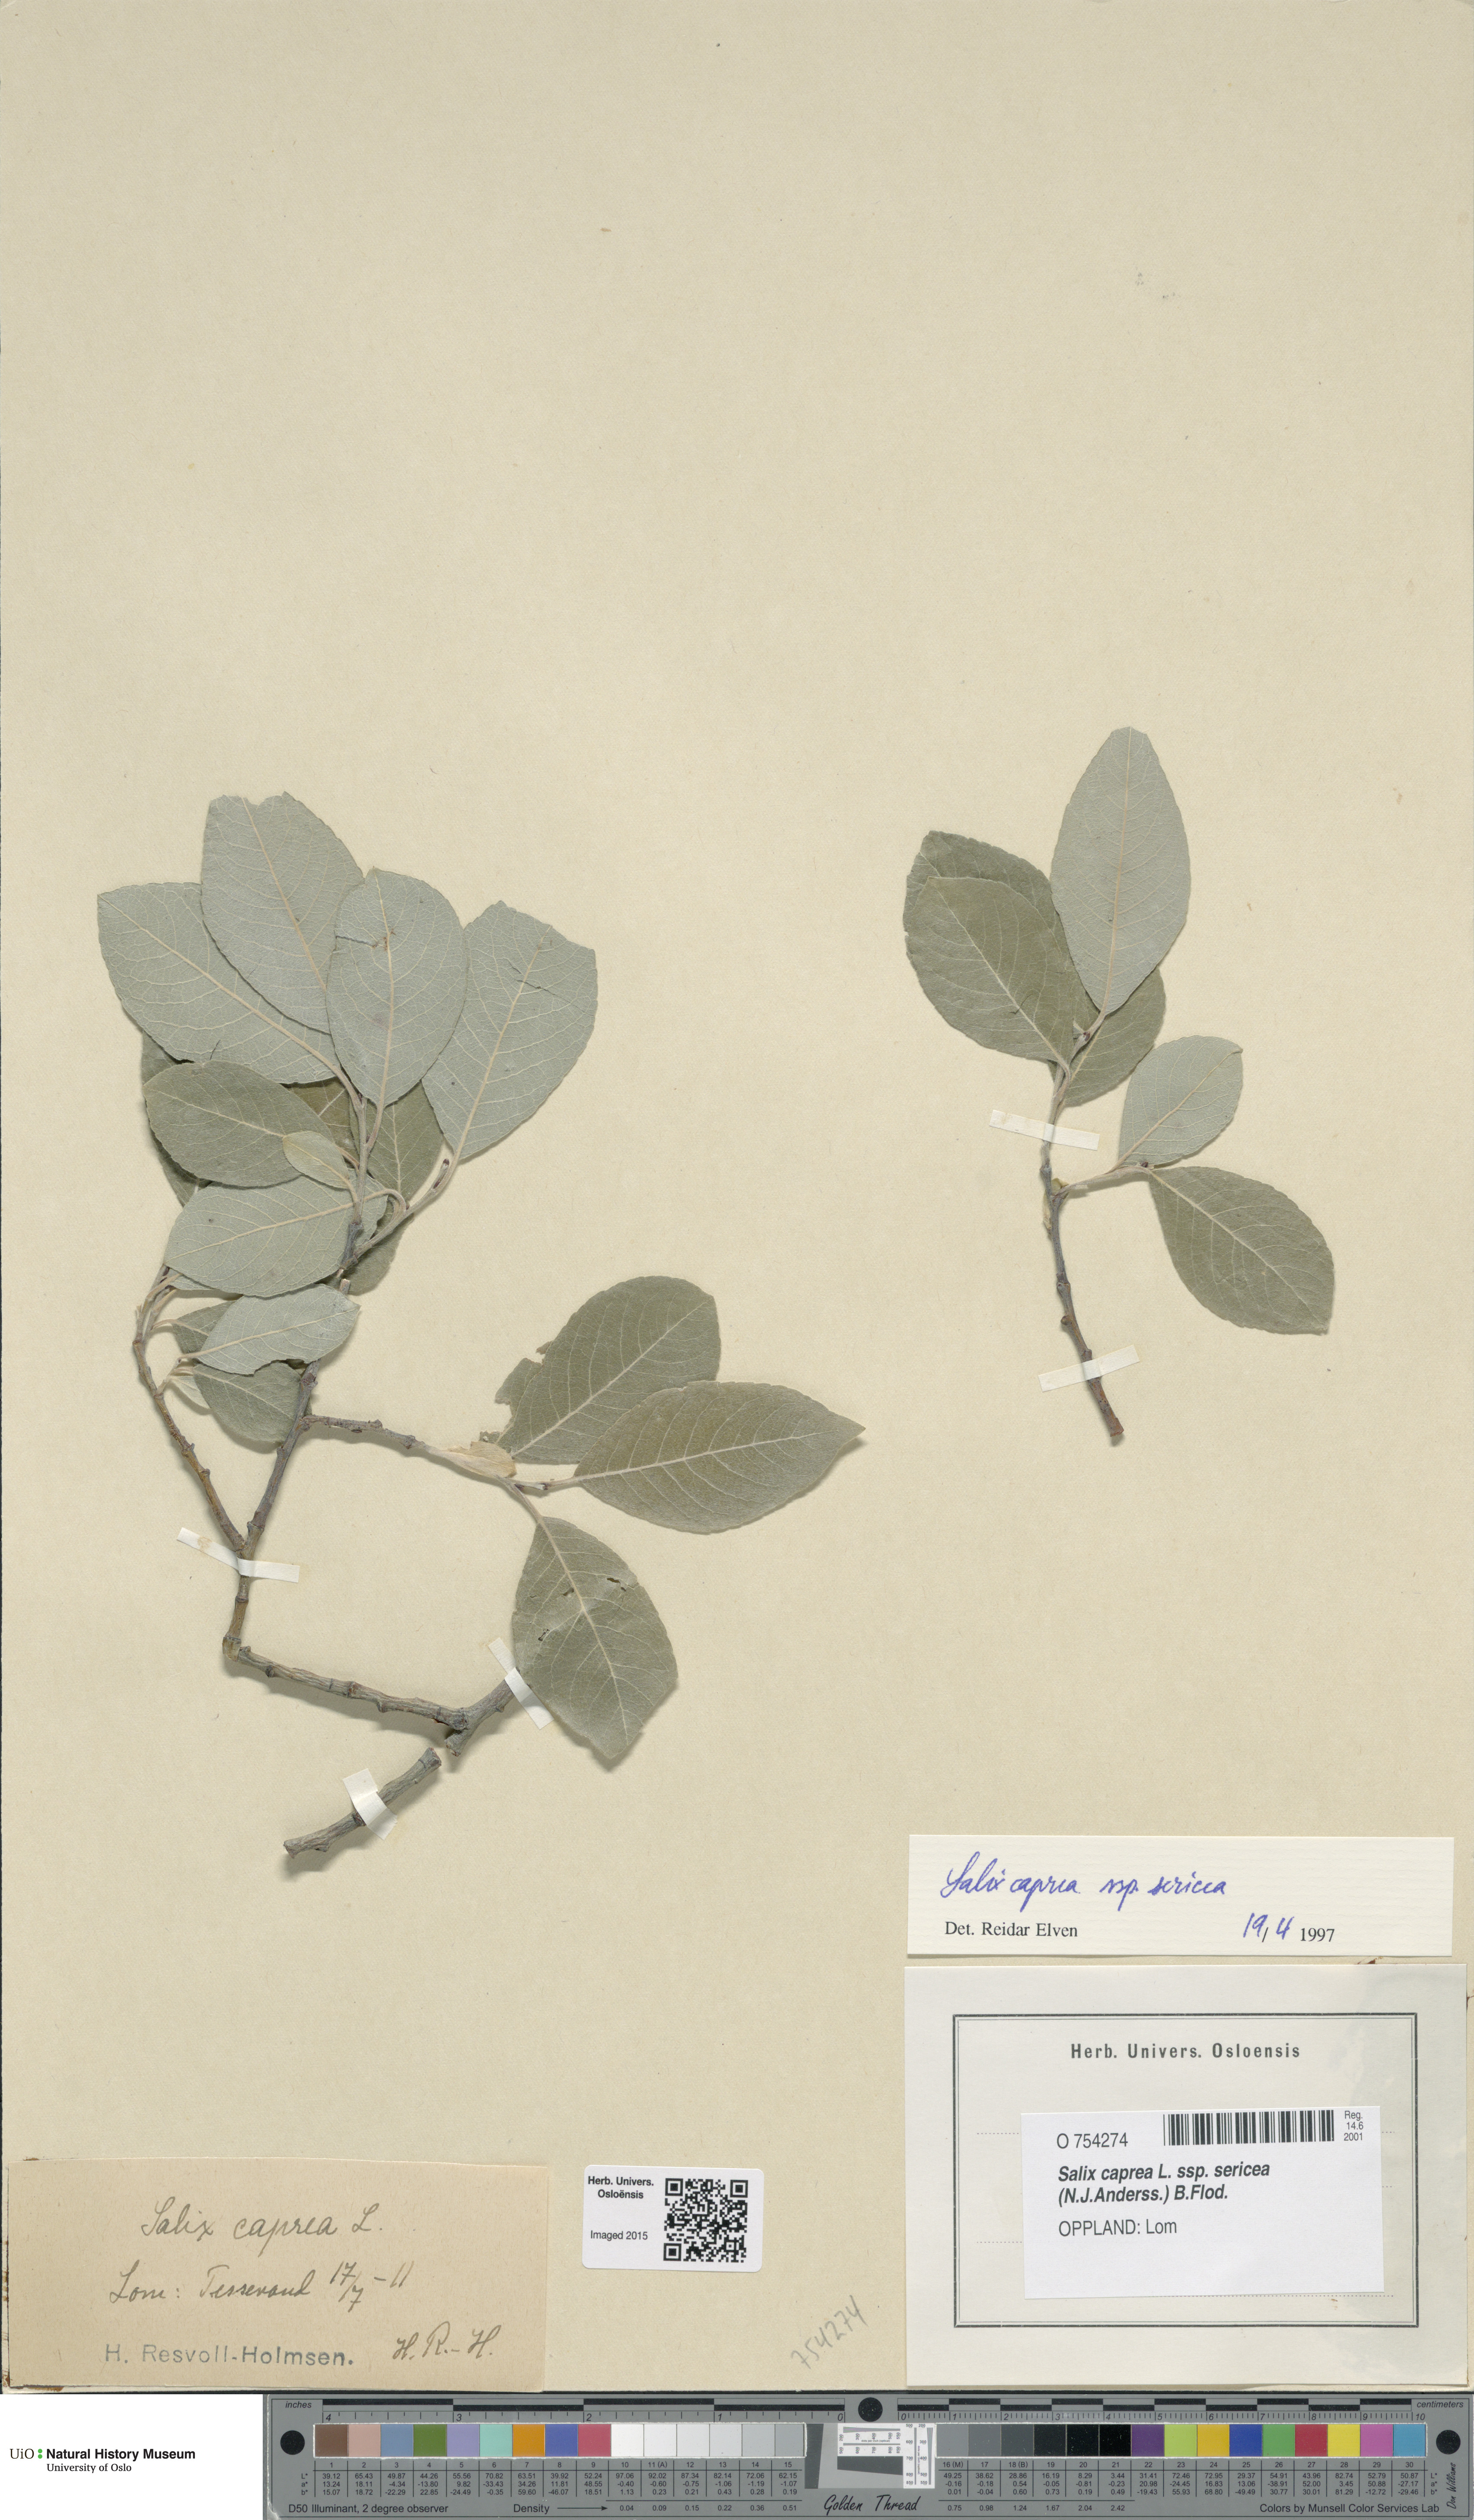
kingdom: Plantae
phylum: Tracheophyta
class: Magnoliopsida
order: Malpighiales
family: Salicaceae
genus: Salix
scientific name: Salix caprea
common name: Goat willow
